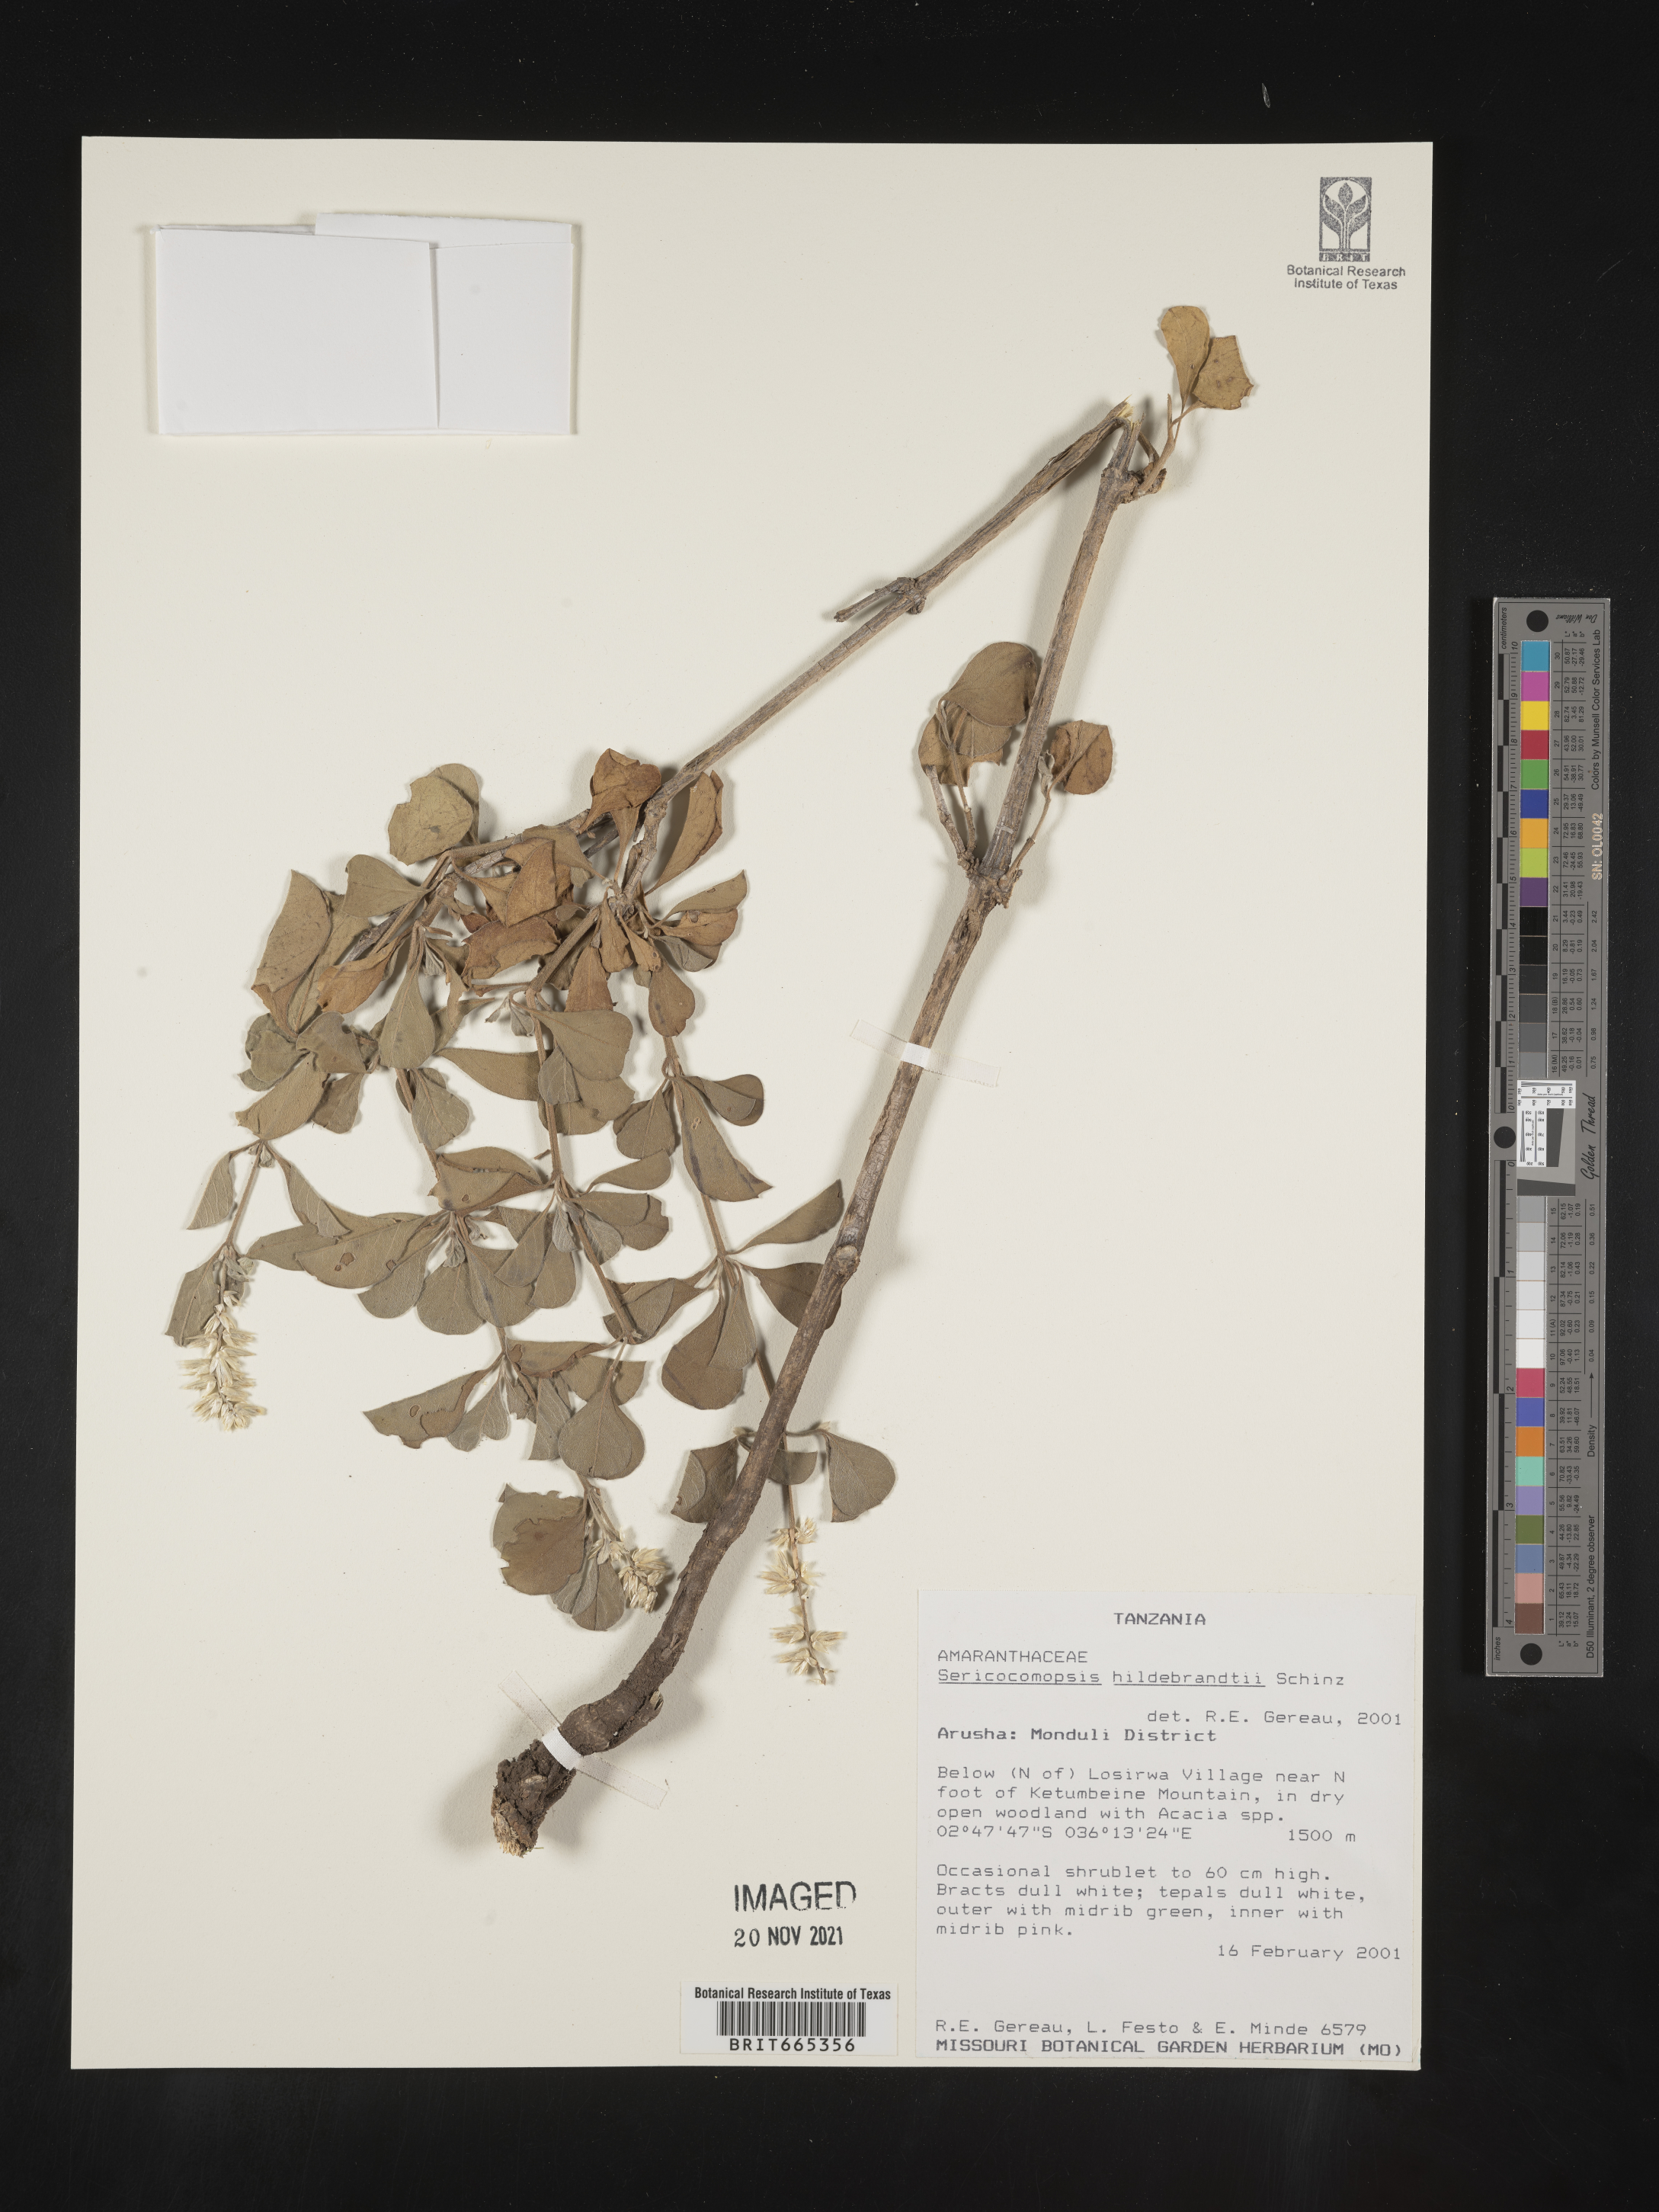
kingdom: Plantae
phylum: Tracheophyta
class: Magnoliopsida
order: Caryophyllales
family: Amaranthaceae
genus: Sericocomopsis
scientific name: Sericocomopsis
